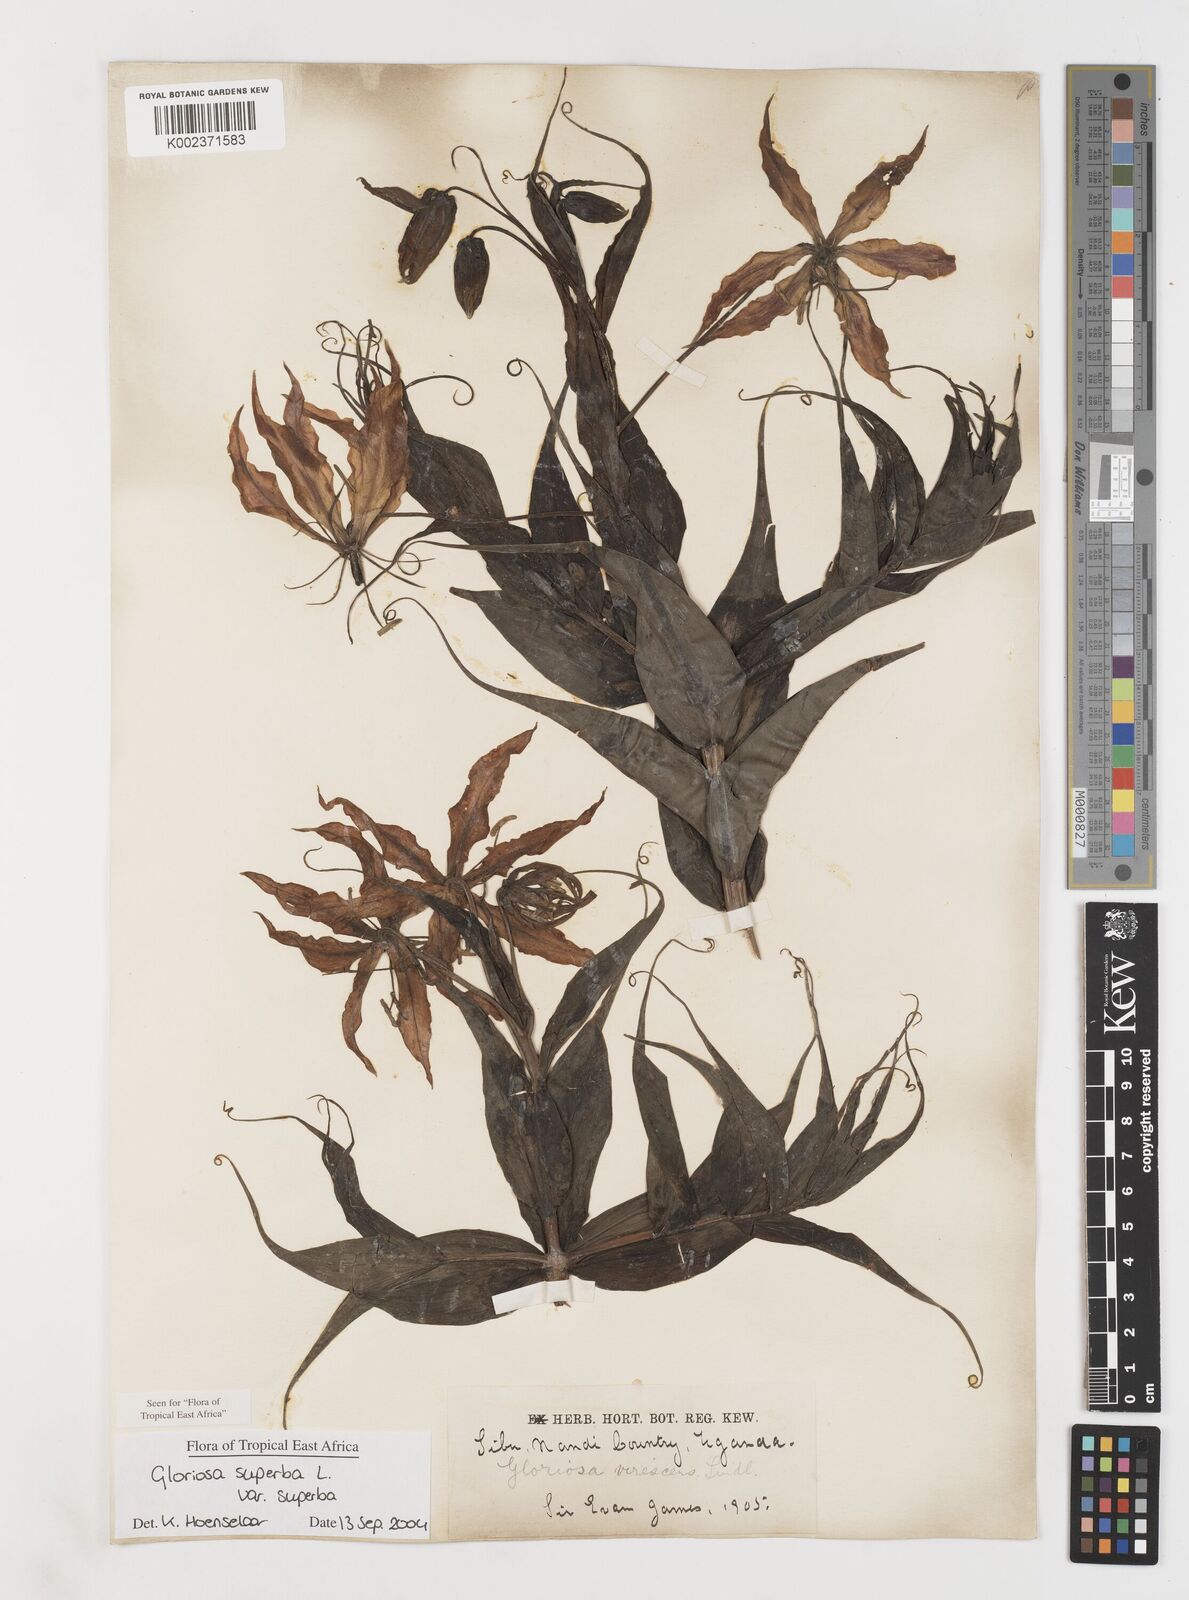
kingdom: Plantae
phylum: Tracheophyta
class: Liliopsida
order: Liliales
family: Colchicaceae
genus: Gloriosa
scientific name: Gloriosa simplex
